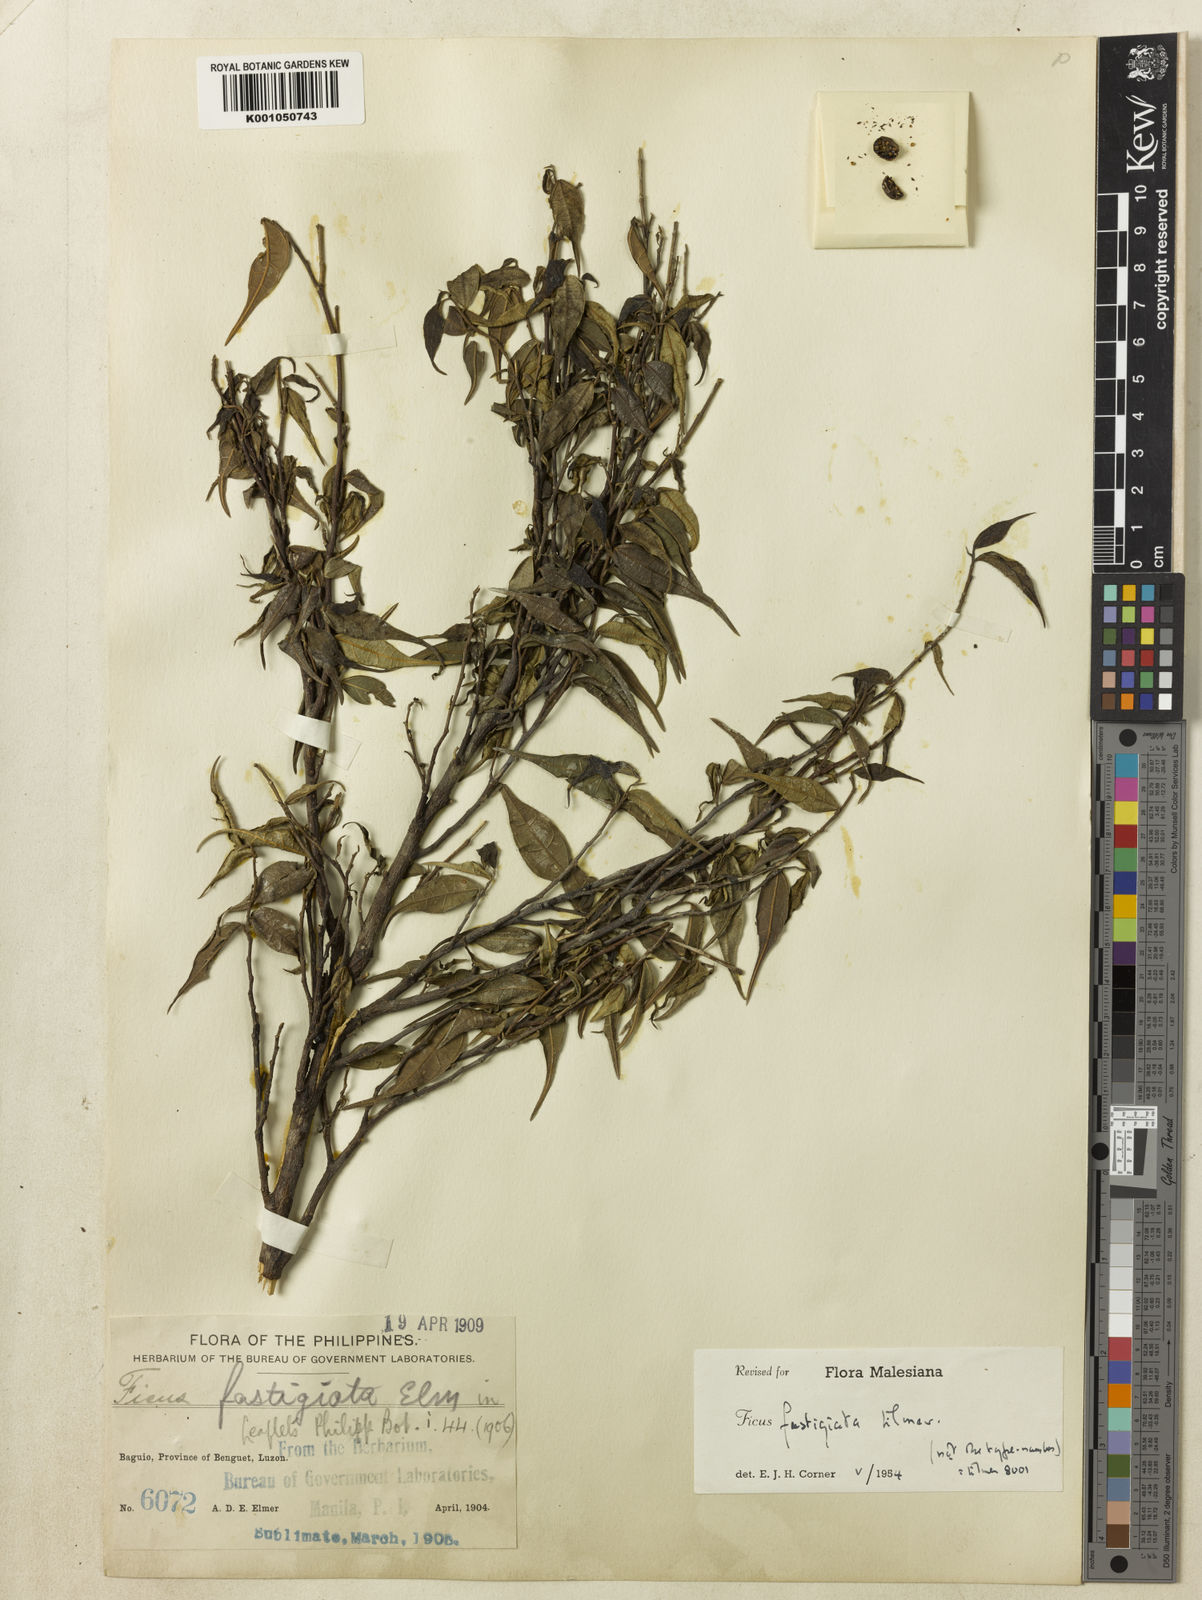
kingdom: Plantae
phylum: Tracheophyta
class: Magnoliopsida
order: Rosales
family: Moraceae
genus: Ficus
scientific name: Ficus ampelos
